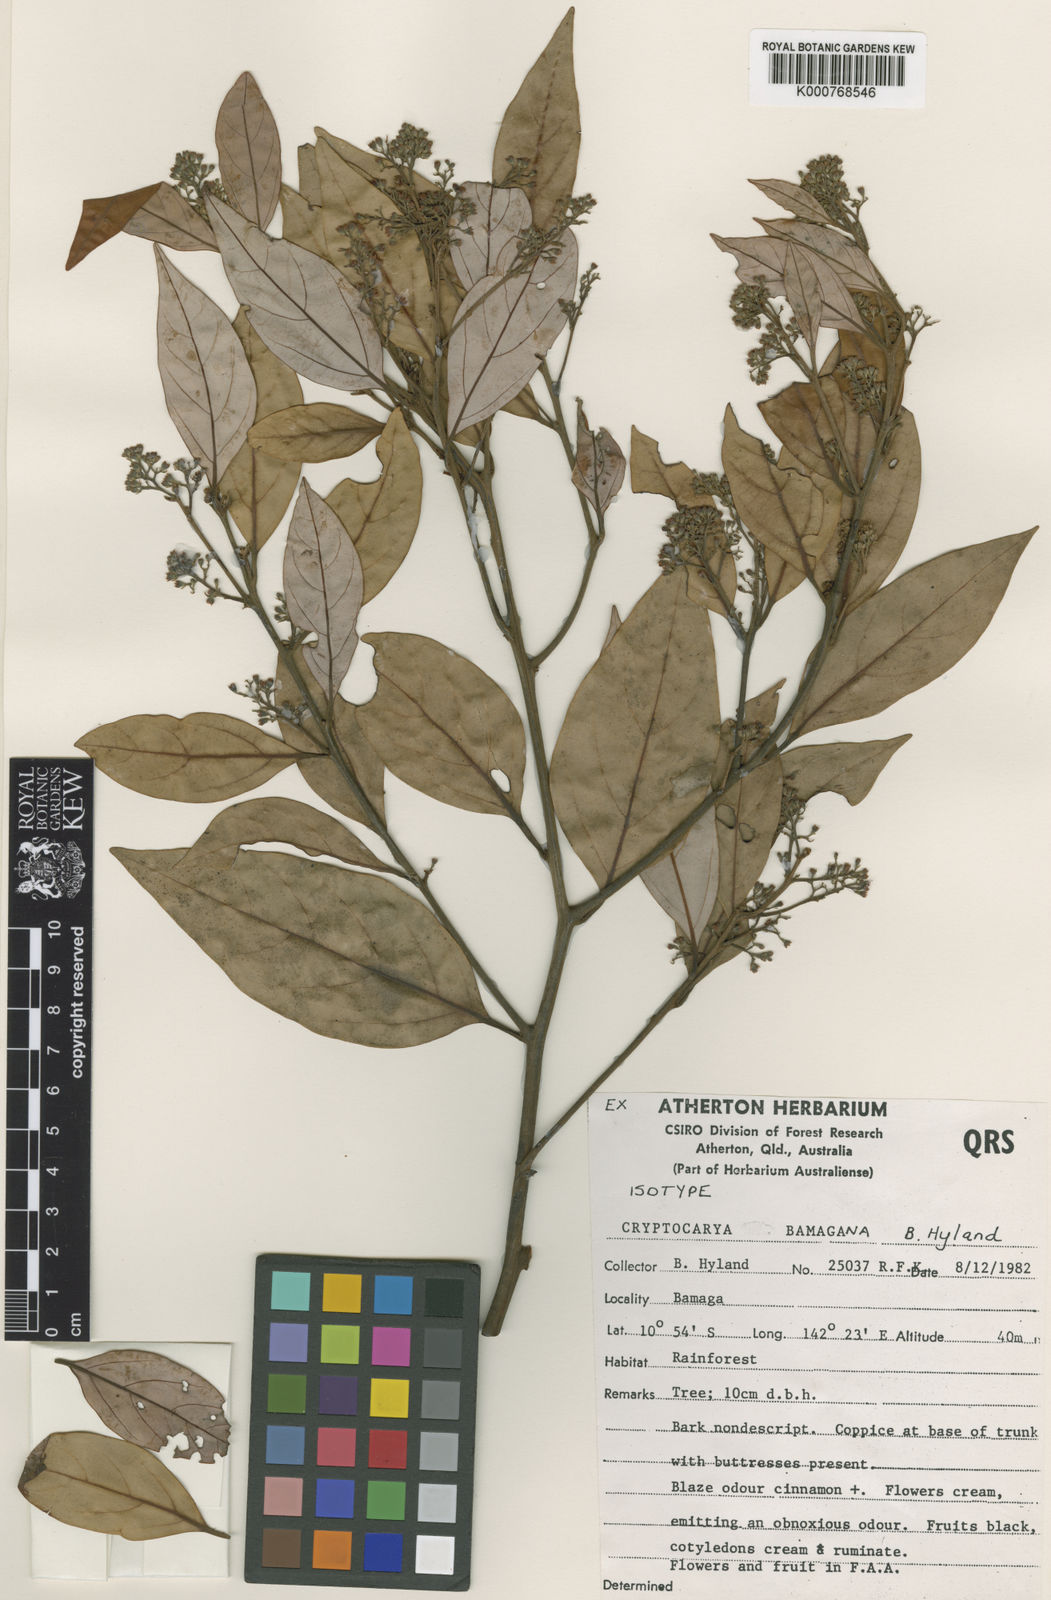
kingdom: Plantae
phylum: Tracheophyta
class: Magnoliopsida
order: Laurales
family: Lauraceae
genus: Cryptocarya
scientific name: Cryptocarya bamagana
